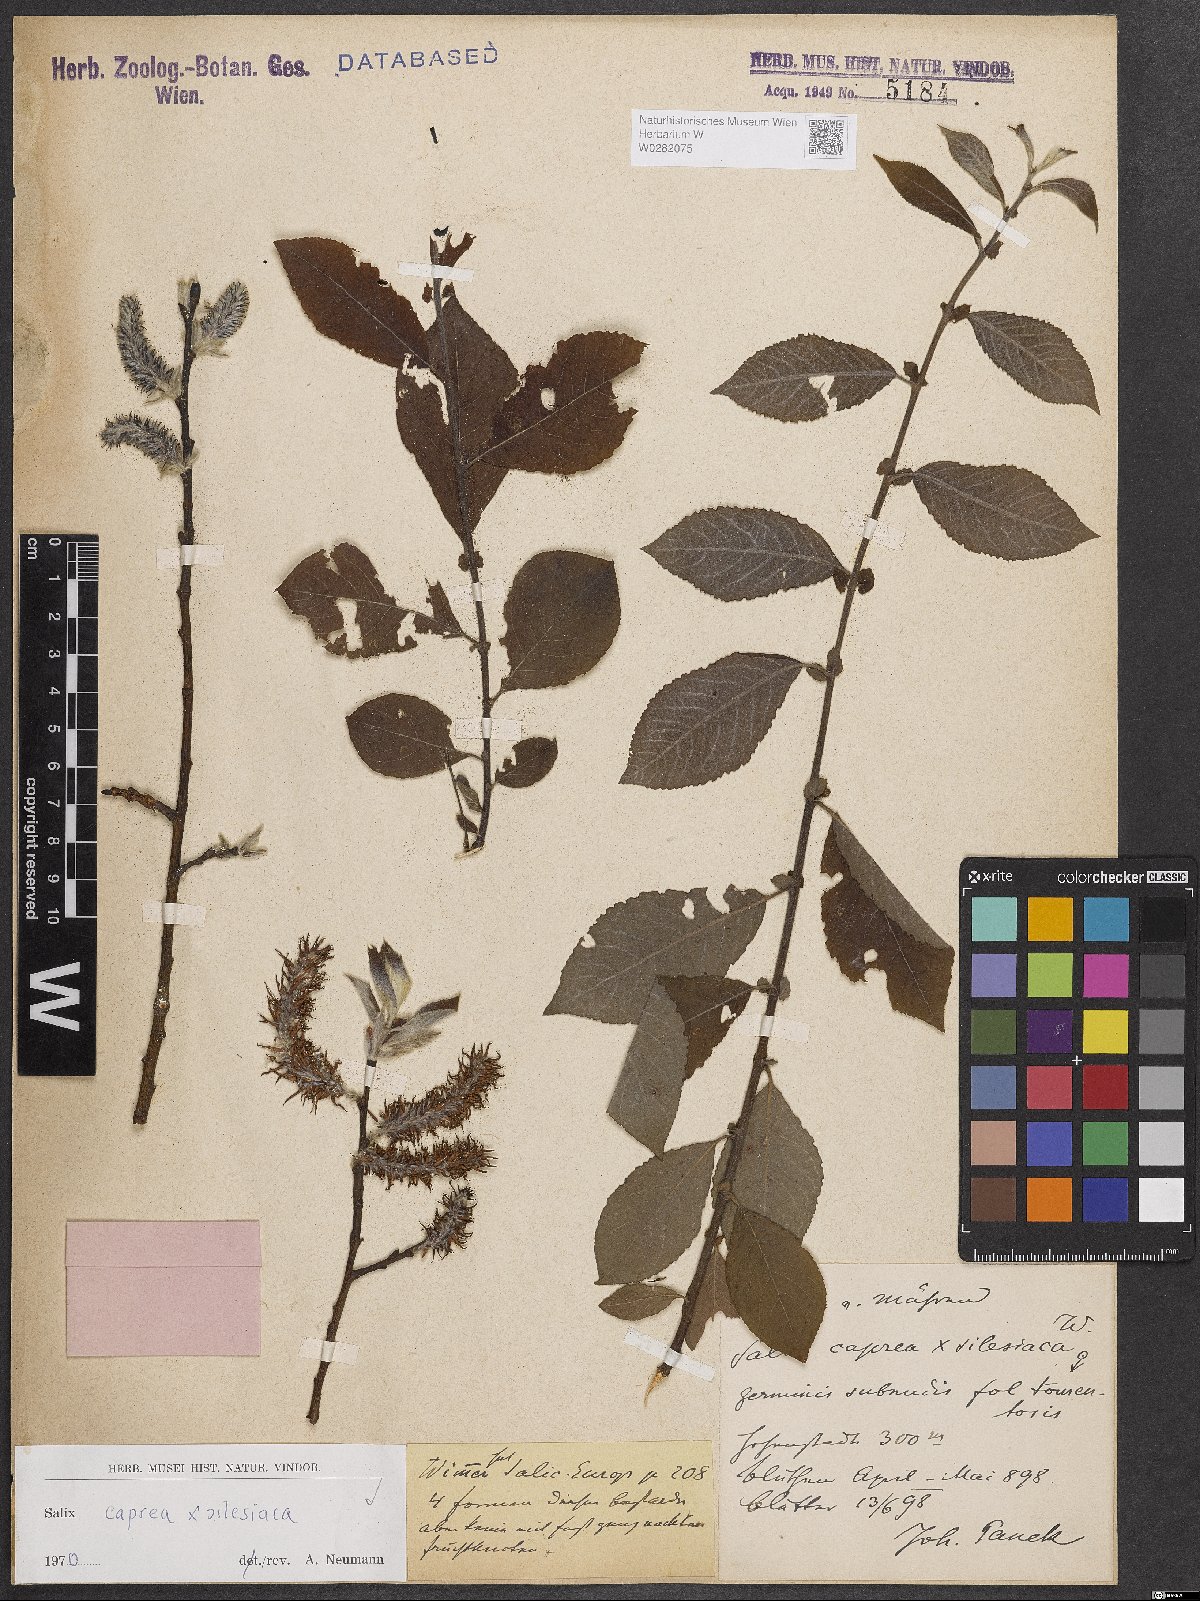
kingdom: Plantae
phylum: Tracheophyta
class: Magnoliopsida
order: Malpighiales
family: Salicaceae
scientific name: Salicaceae
